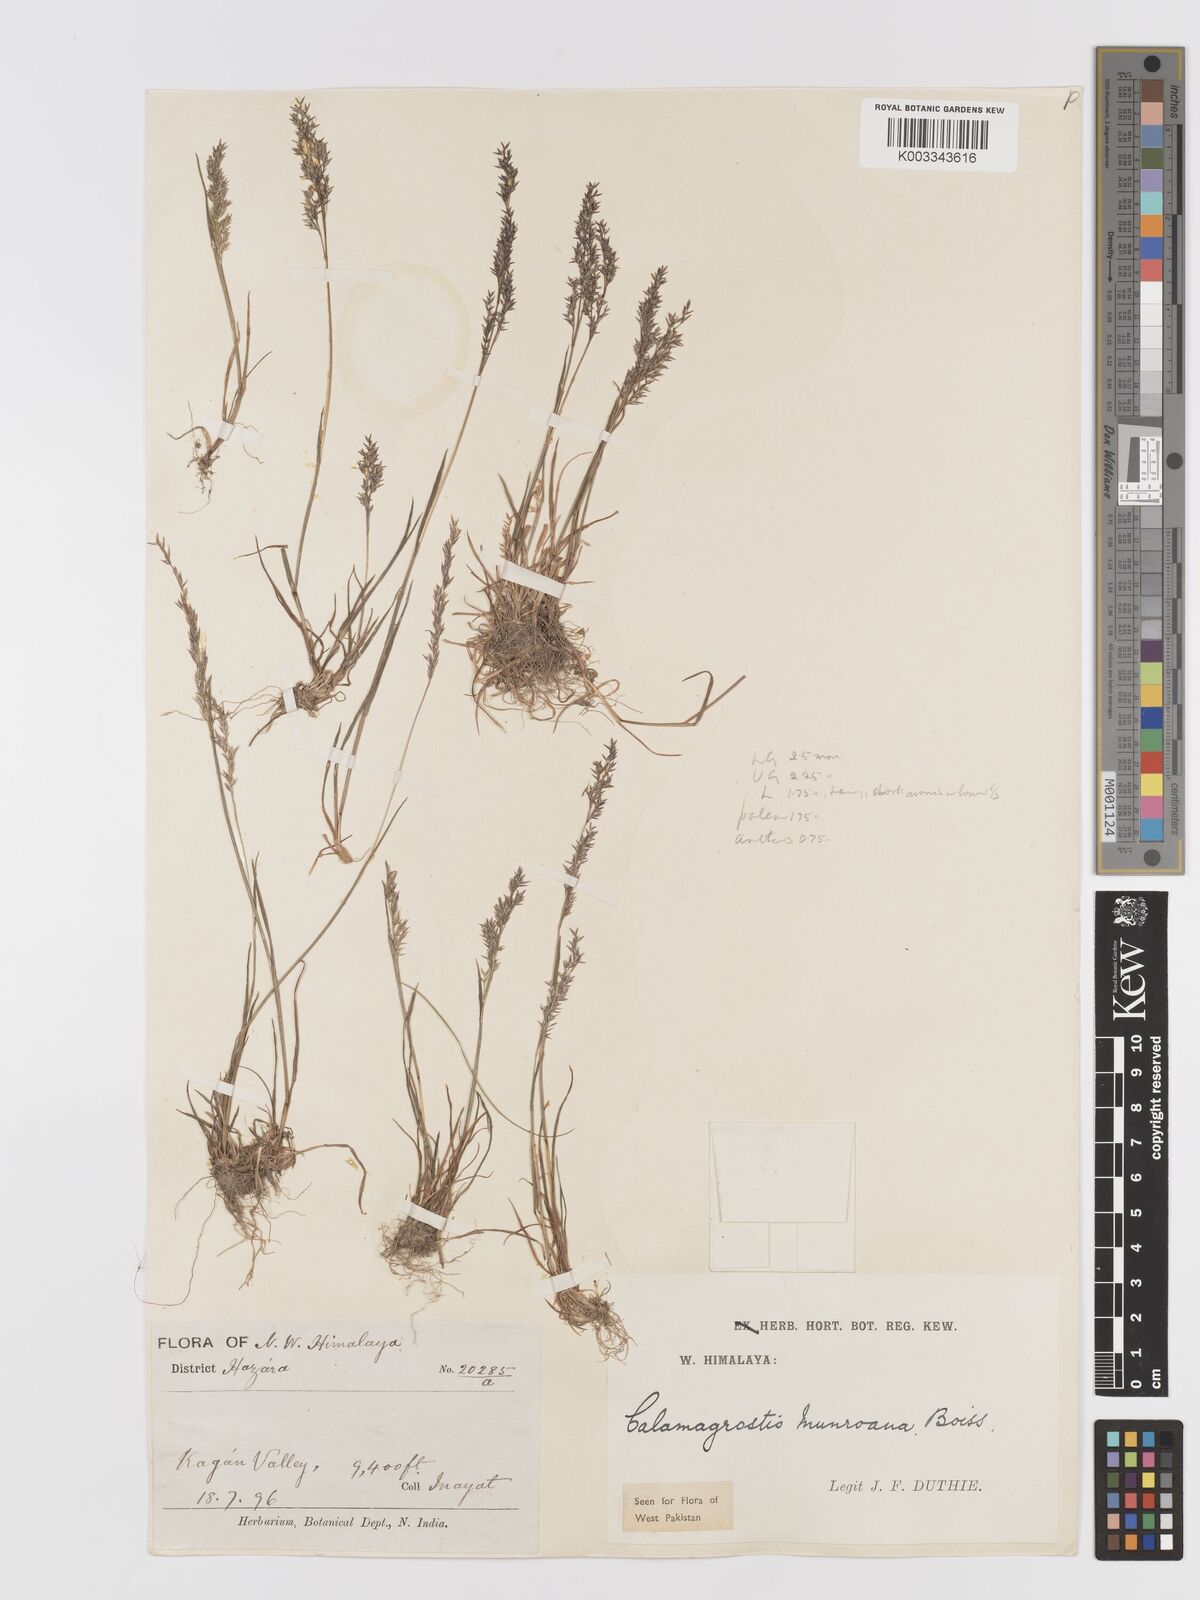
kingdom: Plantae
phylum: Tracheophyta
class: Liliopsida
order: Poales
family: Poaceae
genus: Agrostis
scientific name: Agrostis munroana
